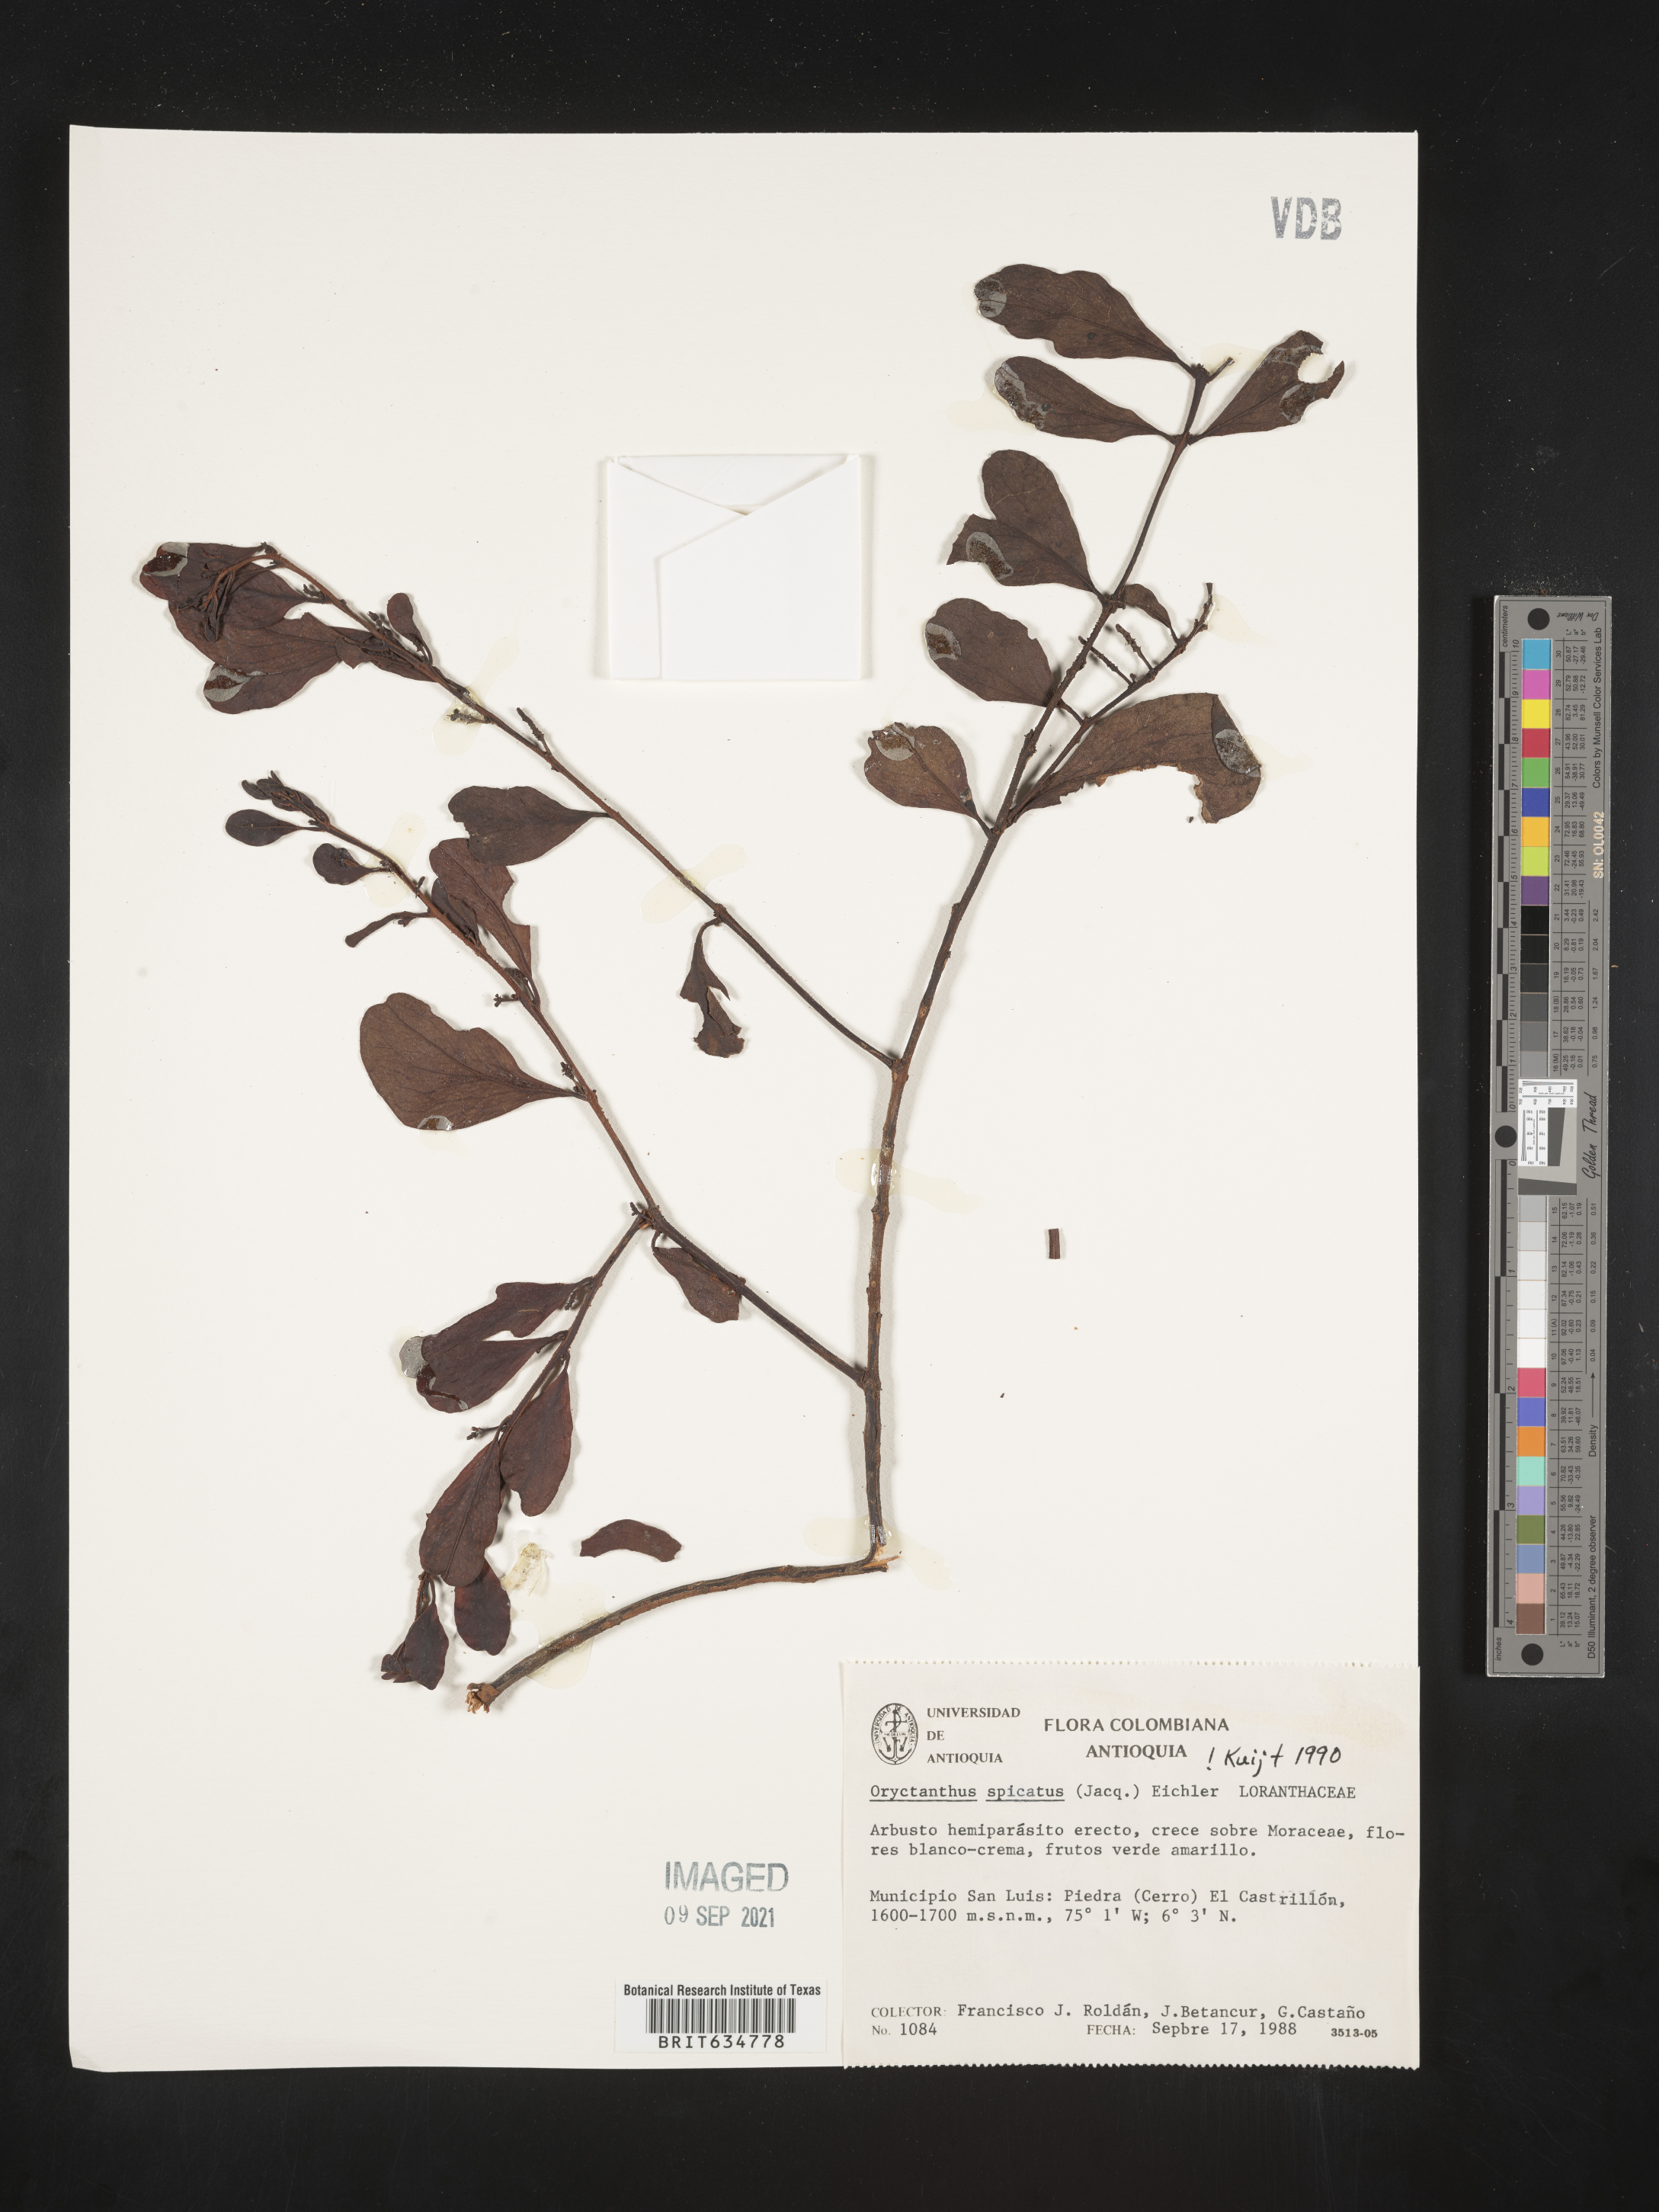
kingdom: Plantae
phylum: Tracheophyta
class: Magnoliopsida
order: Santalales
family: Loranthaceae
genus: Oryctanthus
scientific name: Oryctanthus
